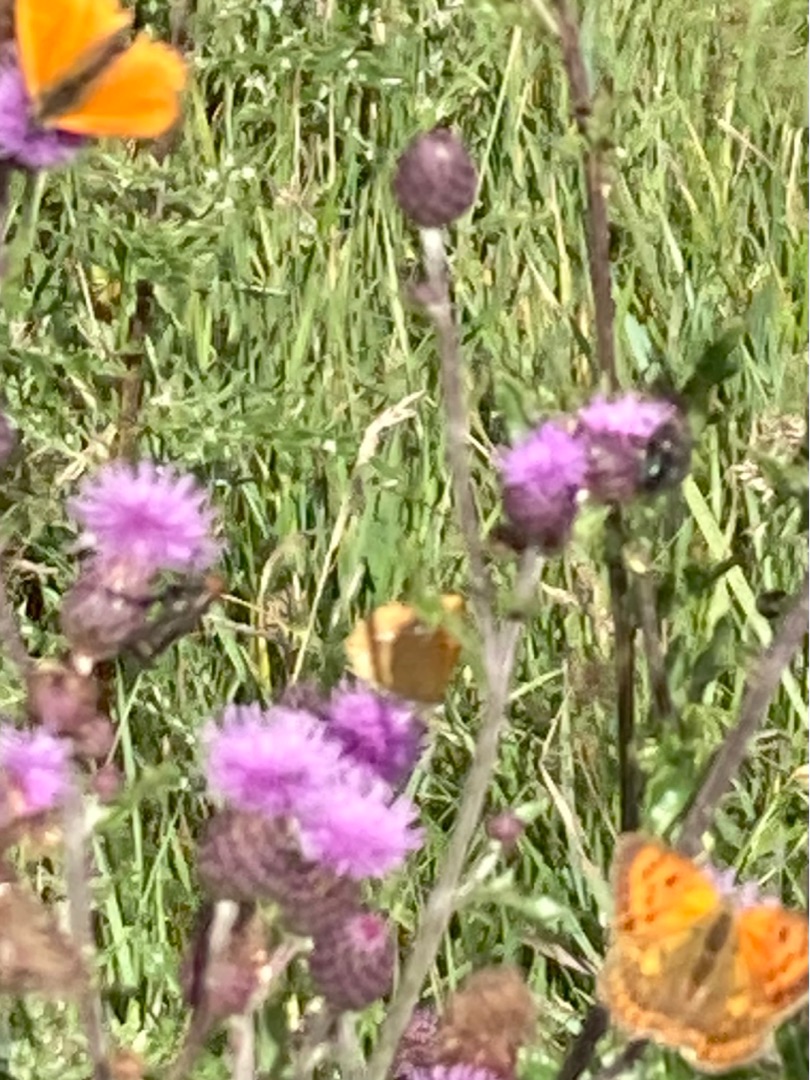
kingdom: Animalia
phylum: Arthropoda
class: Insecta
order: Lepidoptera
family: Lycaenidae
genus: Lycaena
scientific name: Lycaena virgaureae
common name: Dukatsommerfugl
